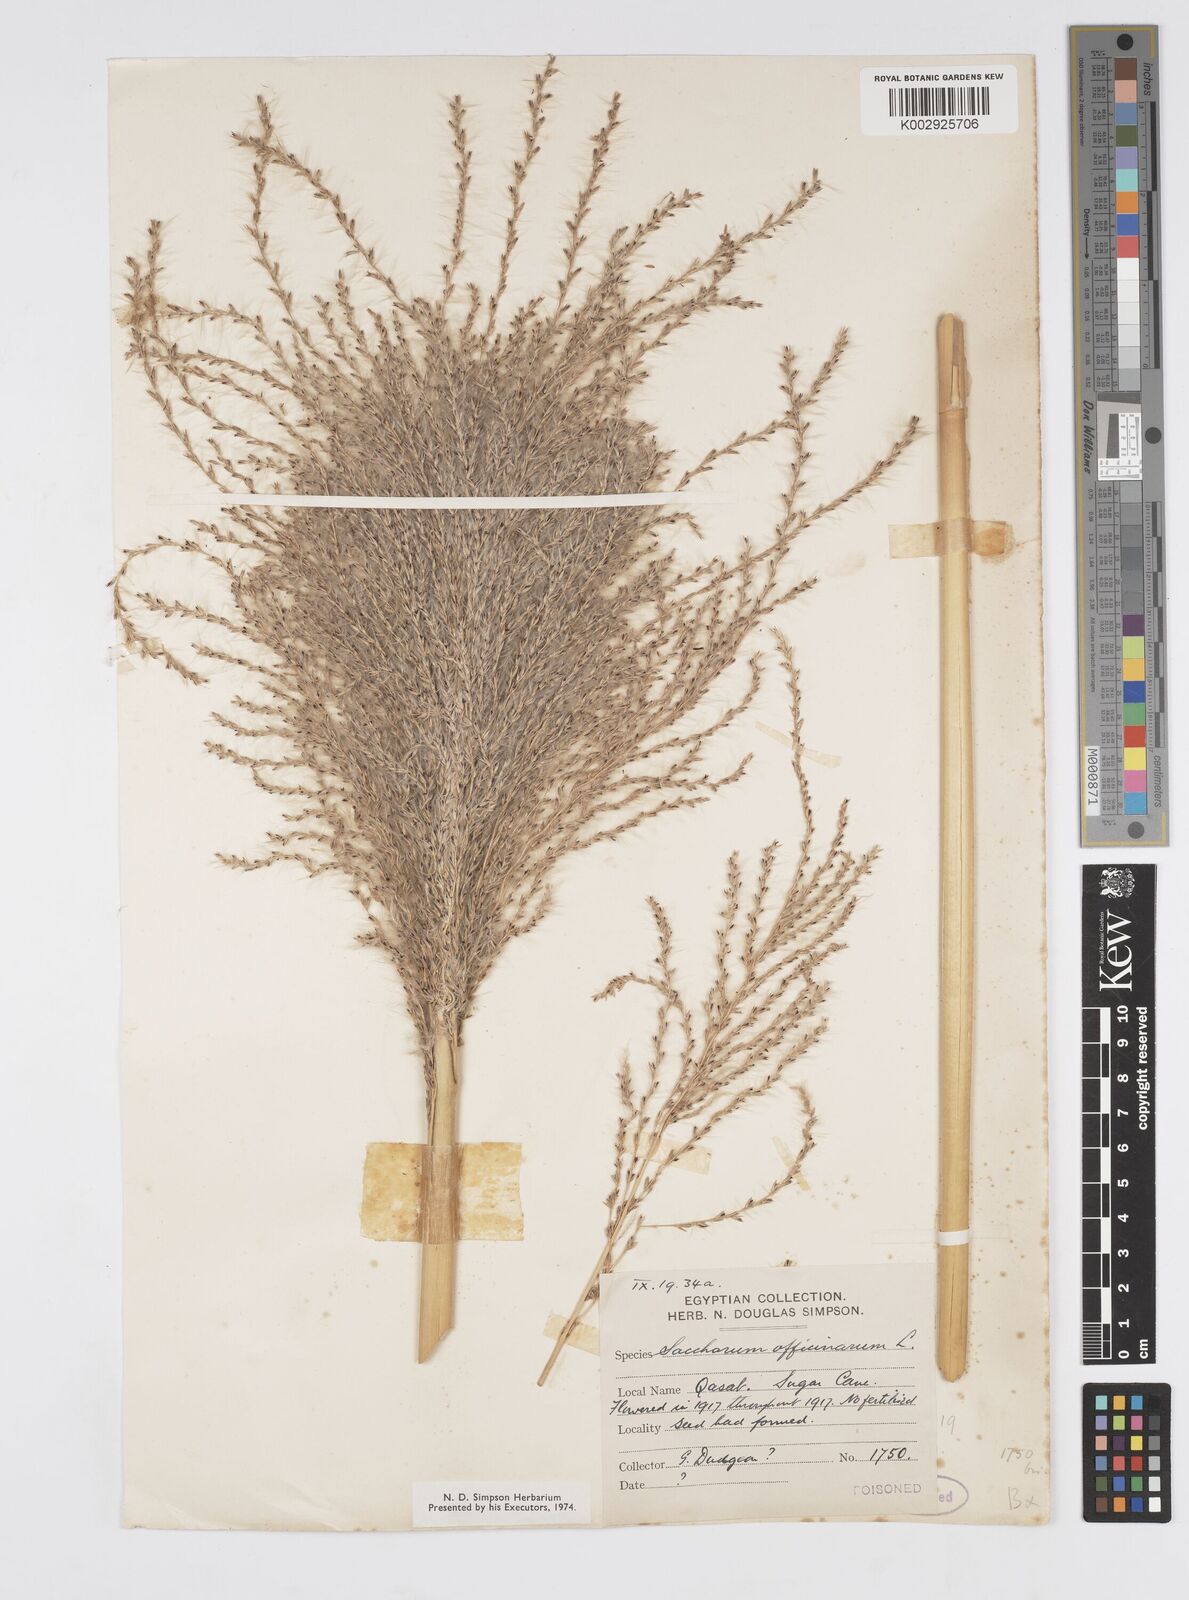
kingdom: Plantae
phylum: Tracheophyta
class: Liliopsida
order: Poales
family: Poaceae
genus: Saccharum
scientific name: Saccharum officinarum
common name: Sugarcane
